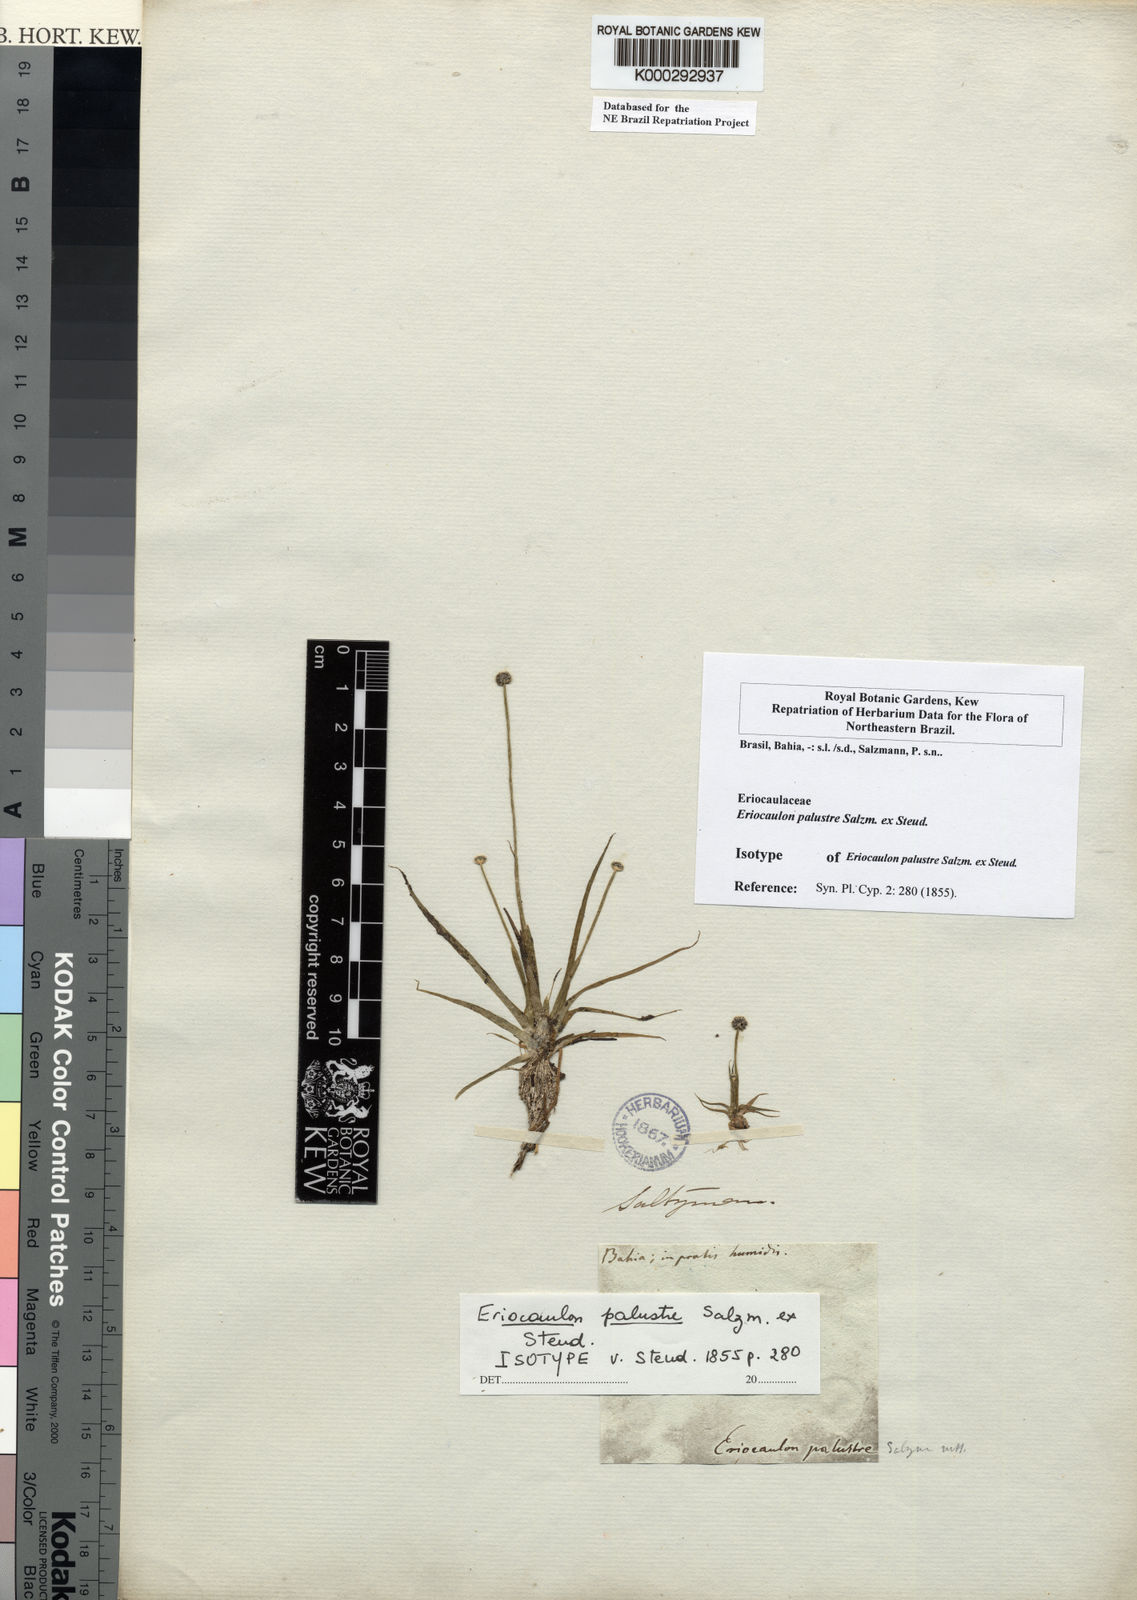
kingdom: Plantae
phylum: Tracheophyta
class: Liliopsida
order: Poales
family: Eriocaulaceae
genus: Eriocaulon
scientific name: Eriocaulon palustre
